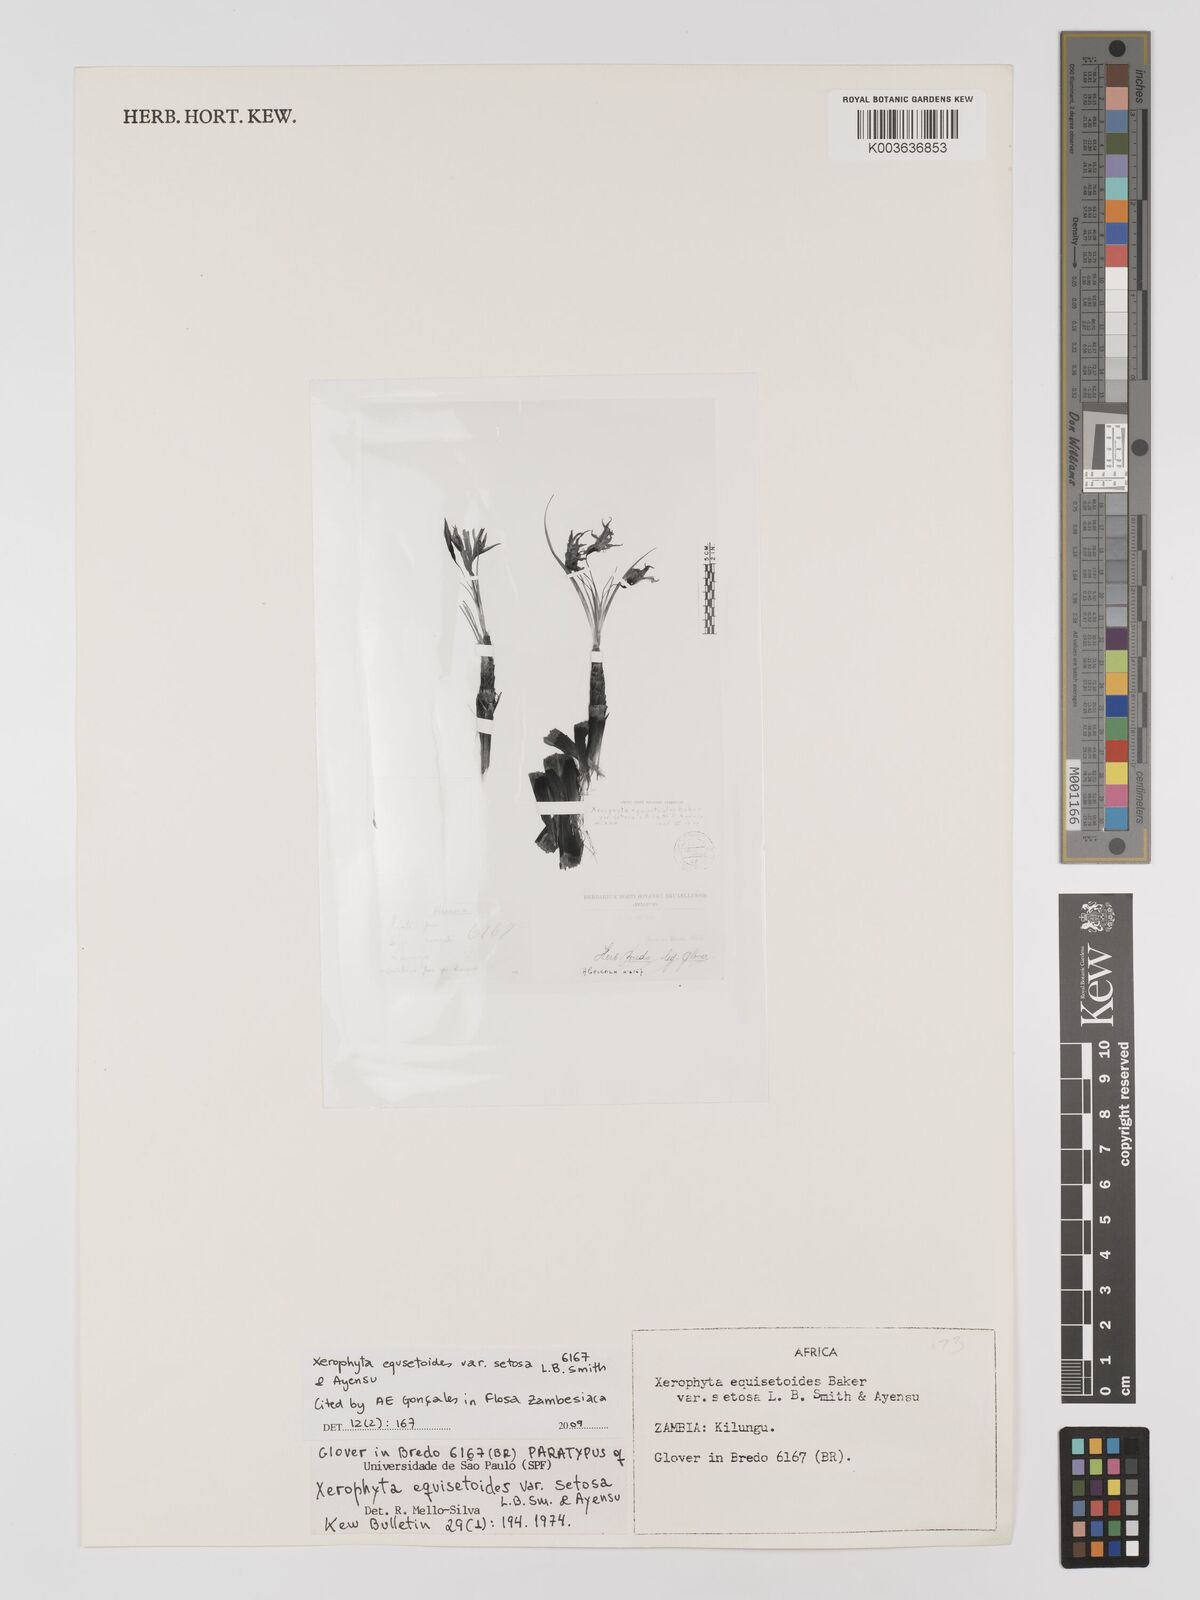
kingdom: Plantae
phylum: Tracheophyta
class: Liliopsida
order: Pandanales
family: Velloziaceae
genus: Xerophyta
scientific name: Xerophyta equisetoides
